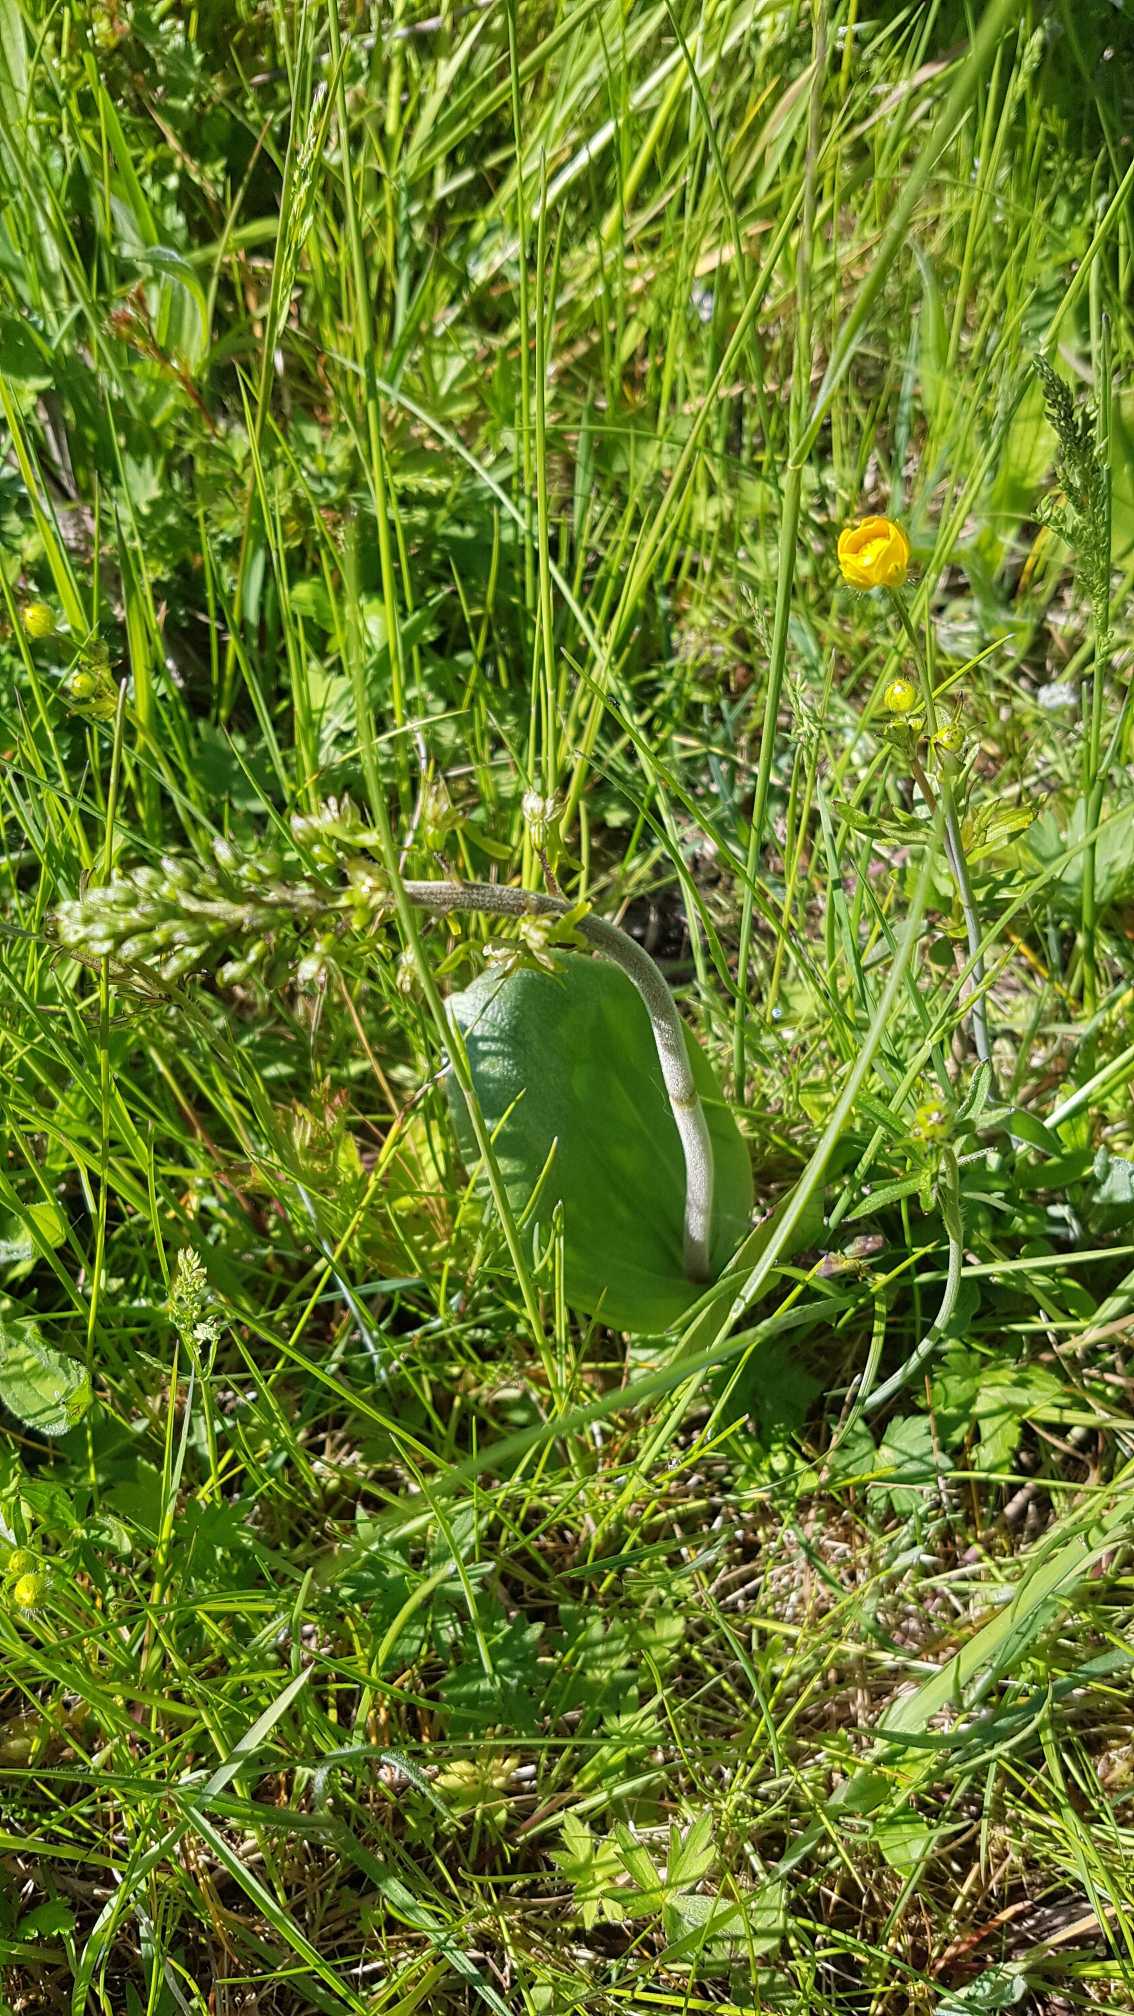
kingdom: Plantae
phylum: Tracheophyta
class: Liliopsida
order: Asparagales
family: Orchidaceae
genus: Neottia
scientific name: Neottia ovata
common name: Ægbladet fliglæbe
